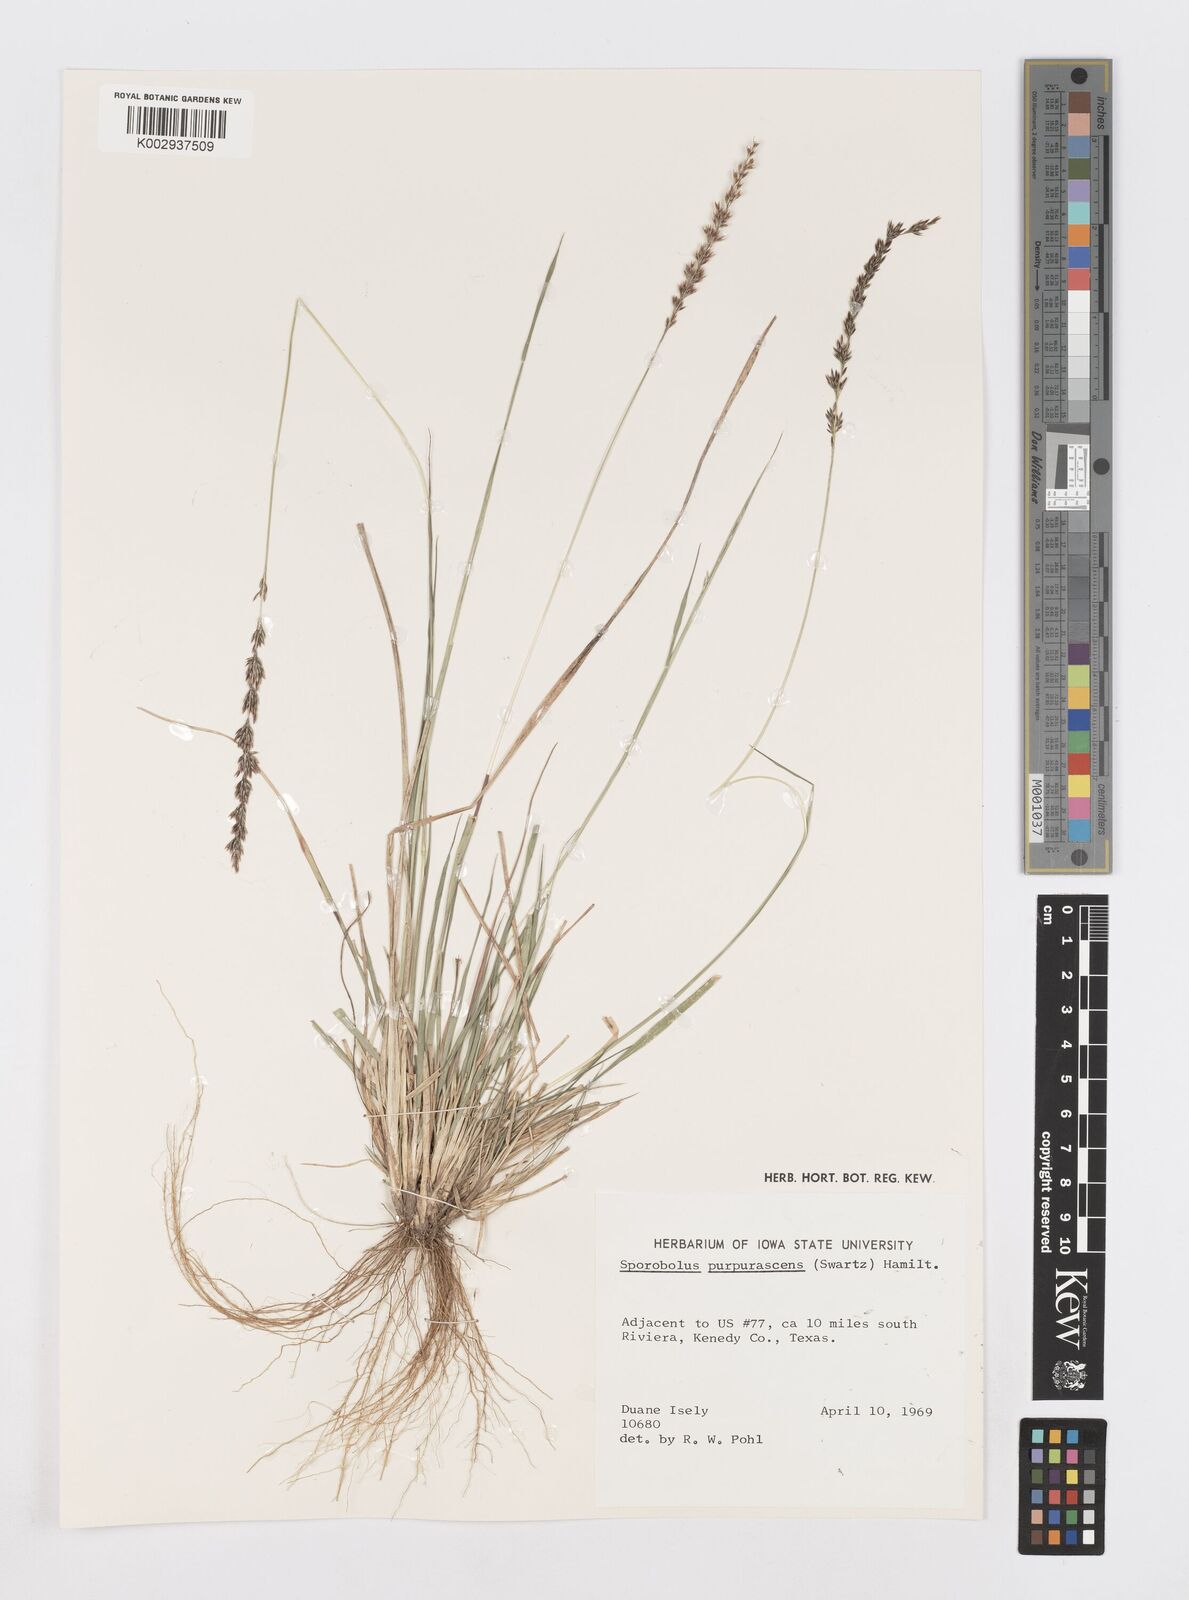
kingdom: Plantae
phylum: Tracheophyta
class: Liliopsida
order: Poales
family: Poaceae
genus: Sporobolus
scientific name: Sporobolus purpurascens
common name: Purple dropseed
